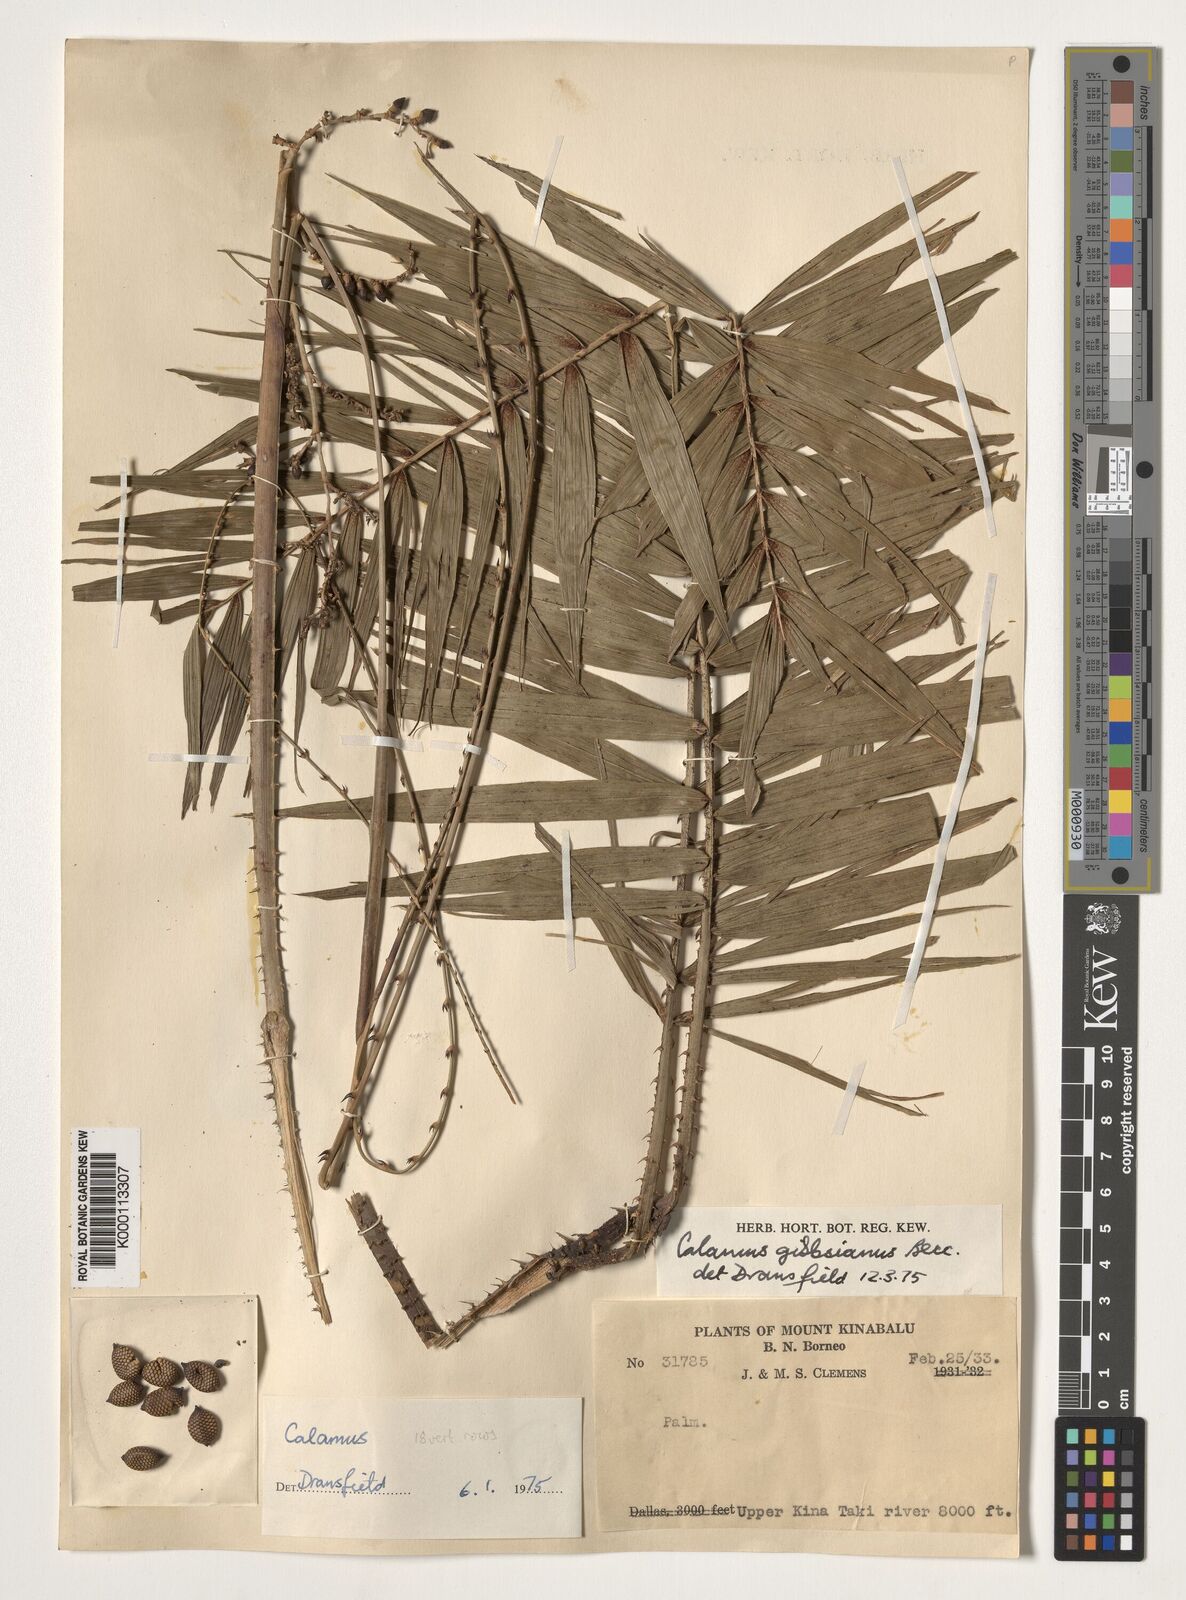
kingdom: Plantae
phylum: Tracheophyta
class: Liliopsida
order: Arecales
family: Arecaceae
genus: Calamus
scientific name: Calamus gibbsianus
